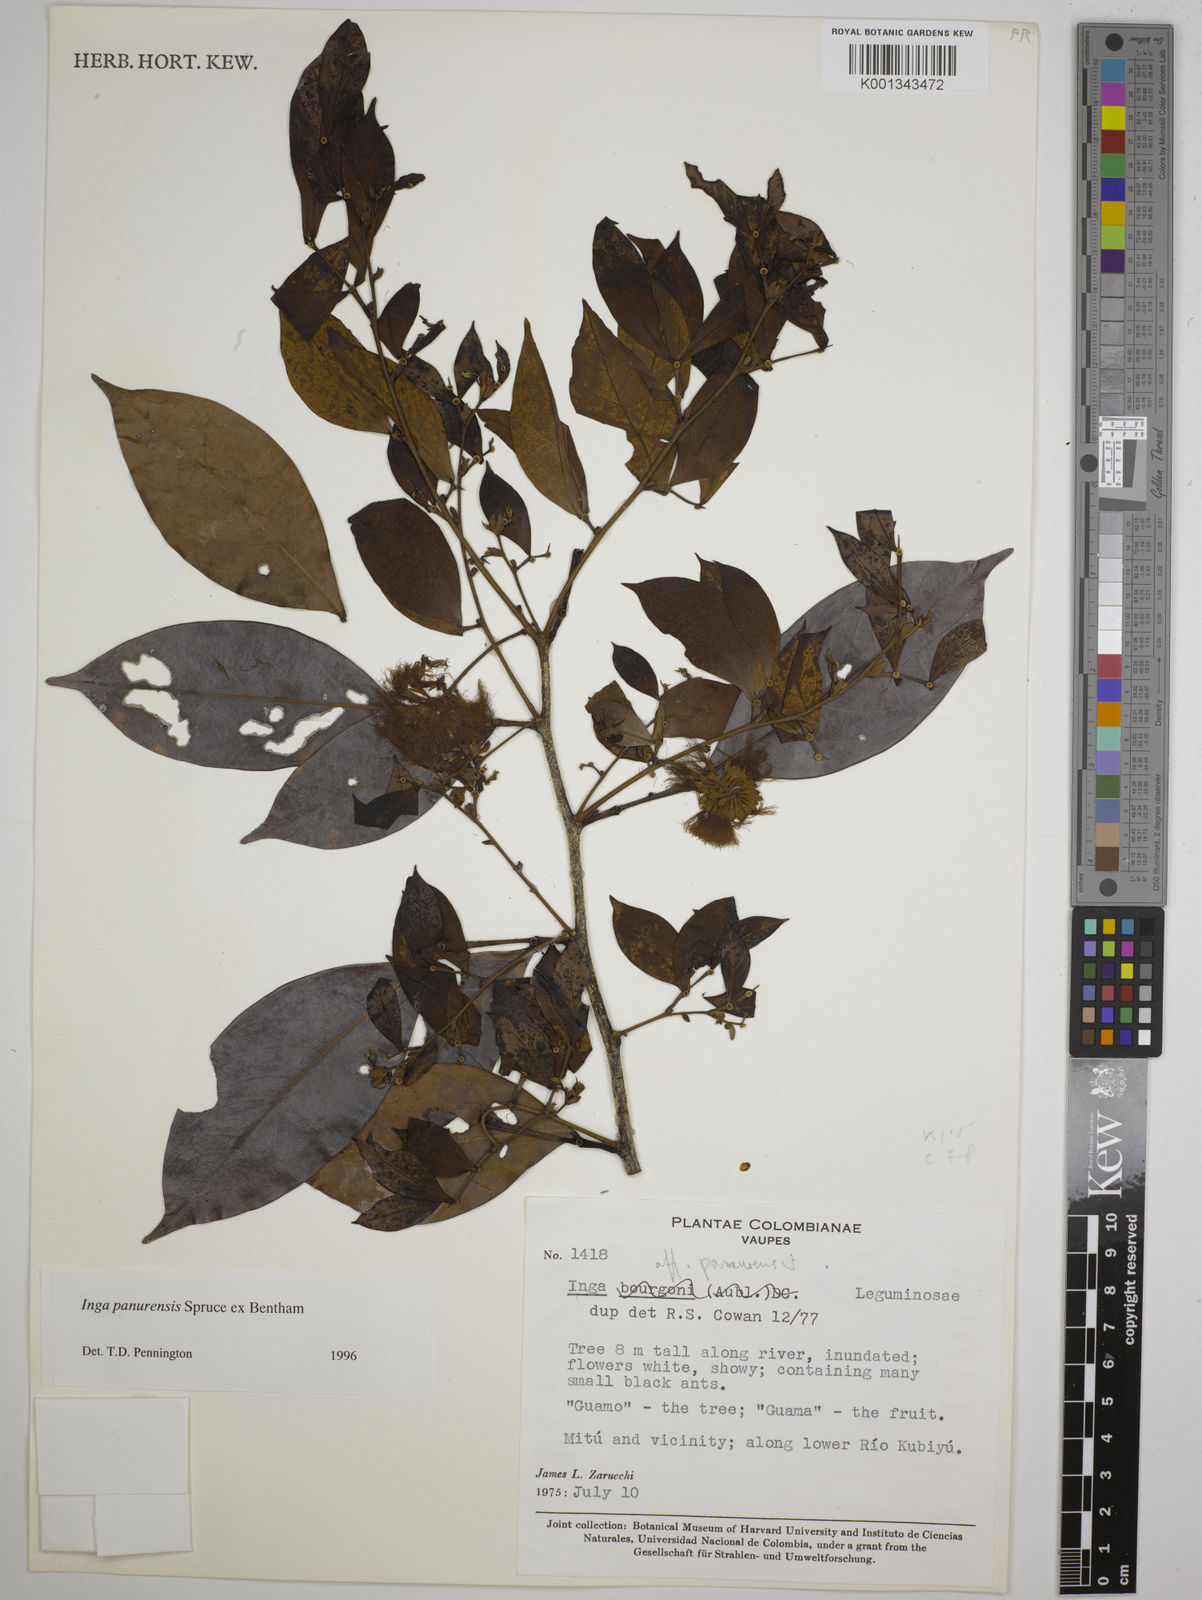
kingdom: Plantae
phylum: Tracheophyta
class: Magnoliopsida
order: Fabales
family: Fabaceae
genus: Inga
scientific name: Inga panurensis
